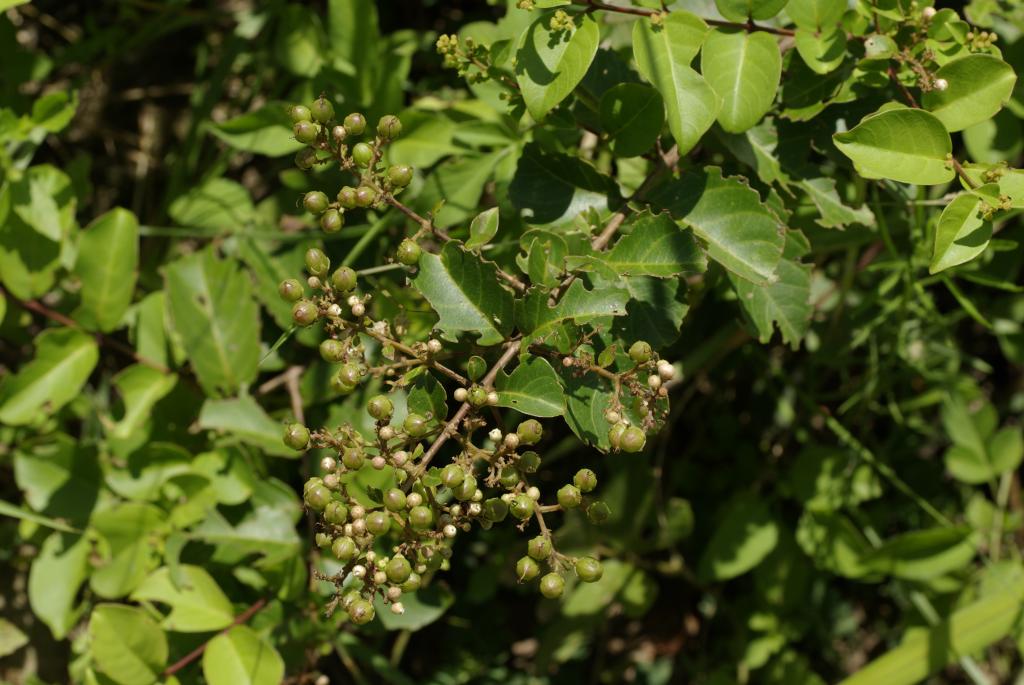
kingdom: Plantae
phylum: Tracheophyta
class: Magnoliopsida
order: Myrtales
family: Lythraceae
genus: Lagerstroemia
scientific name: Lagerstroemia subcostata
